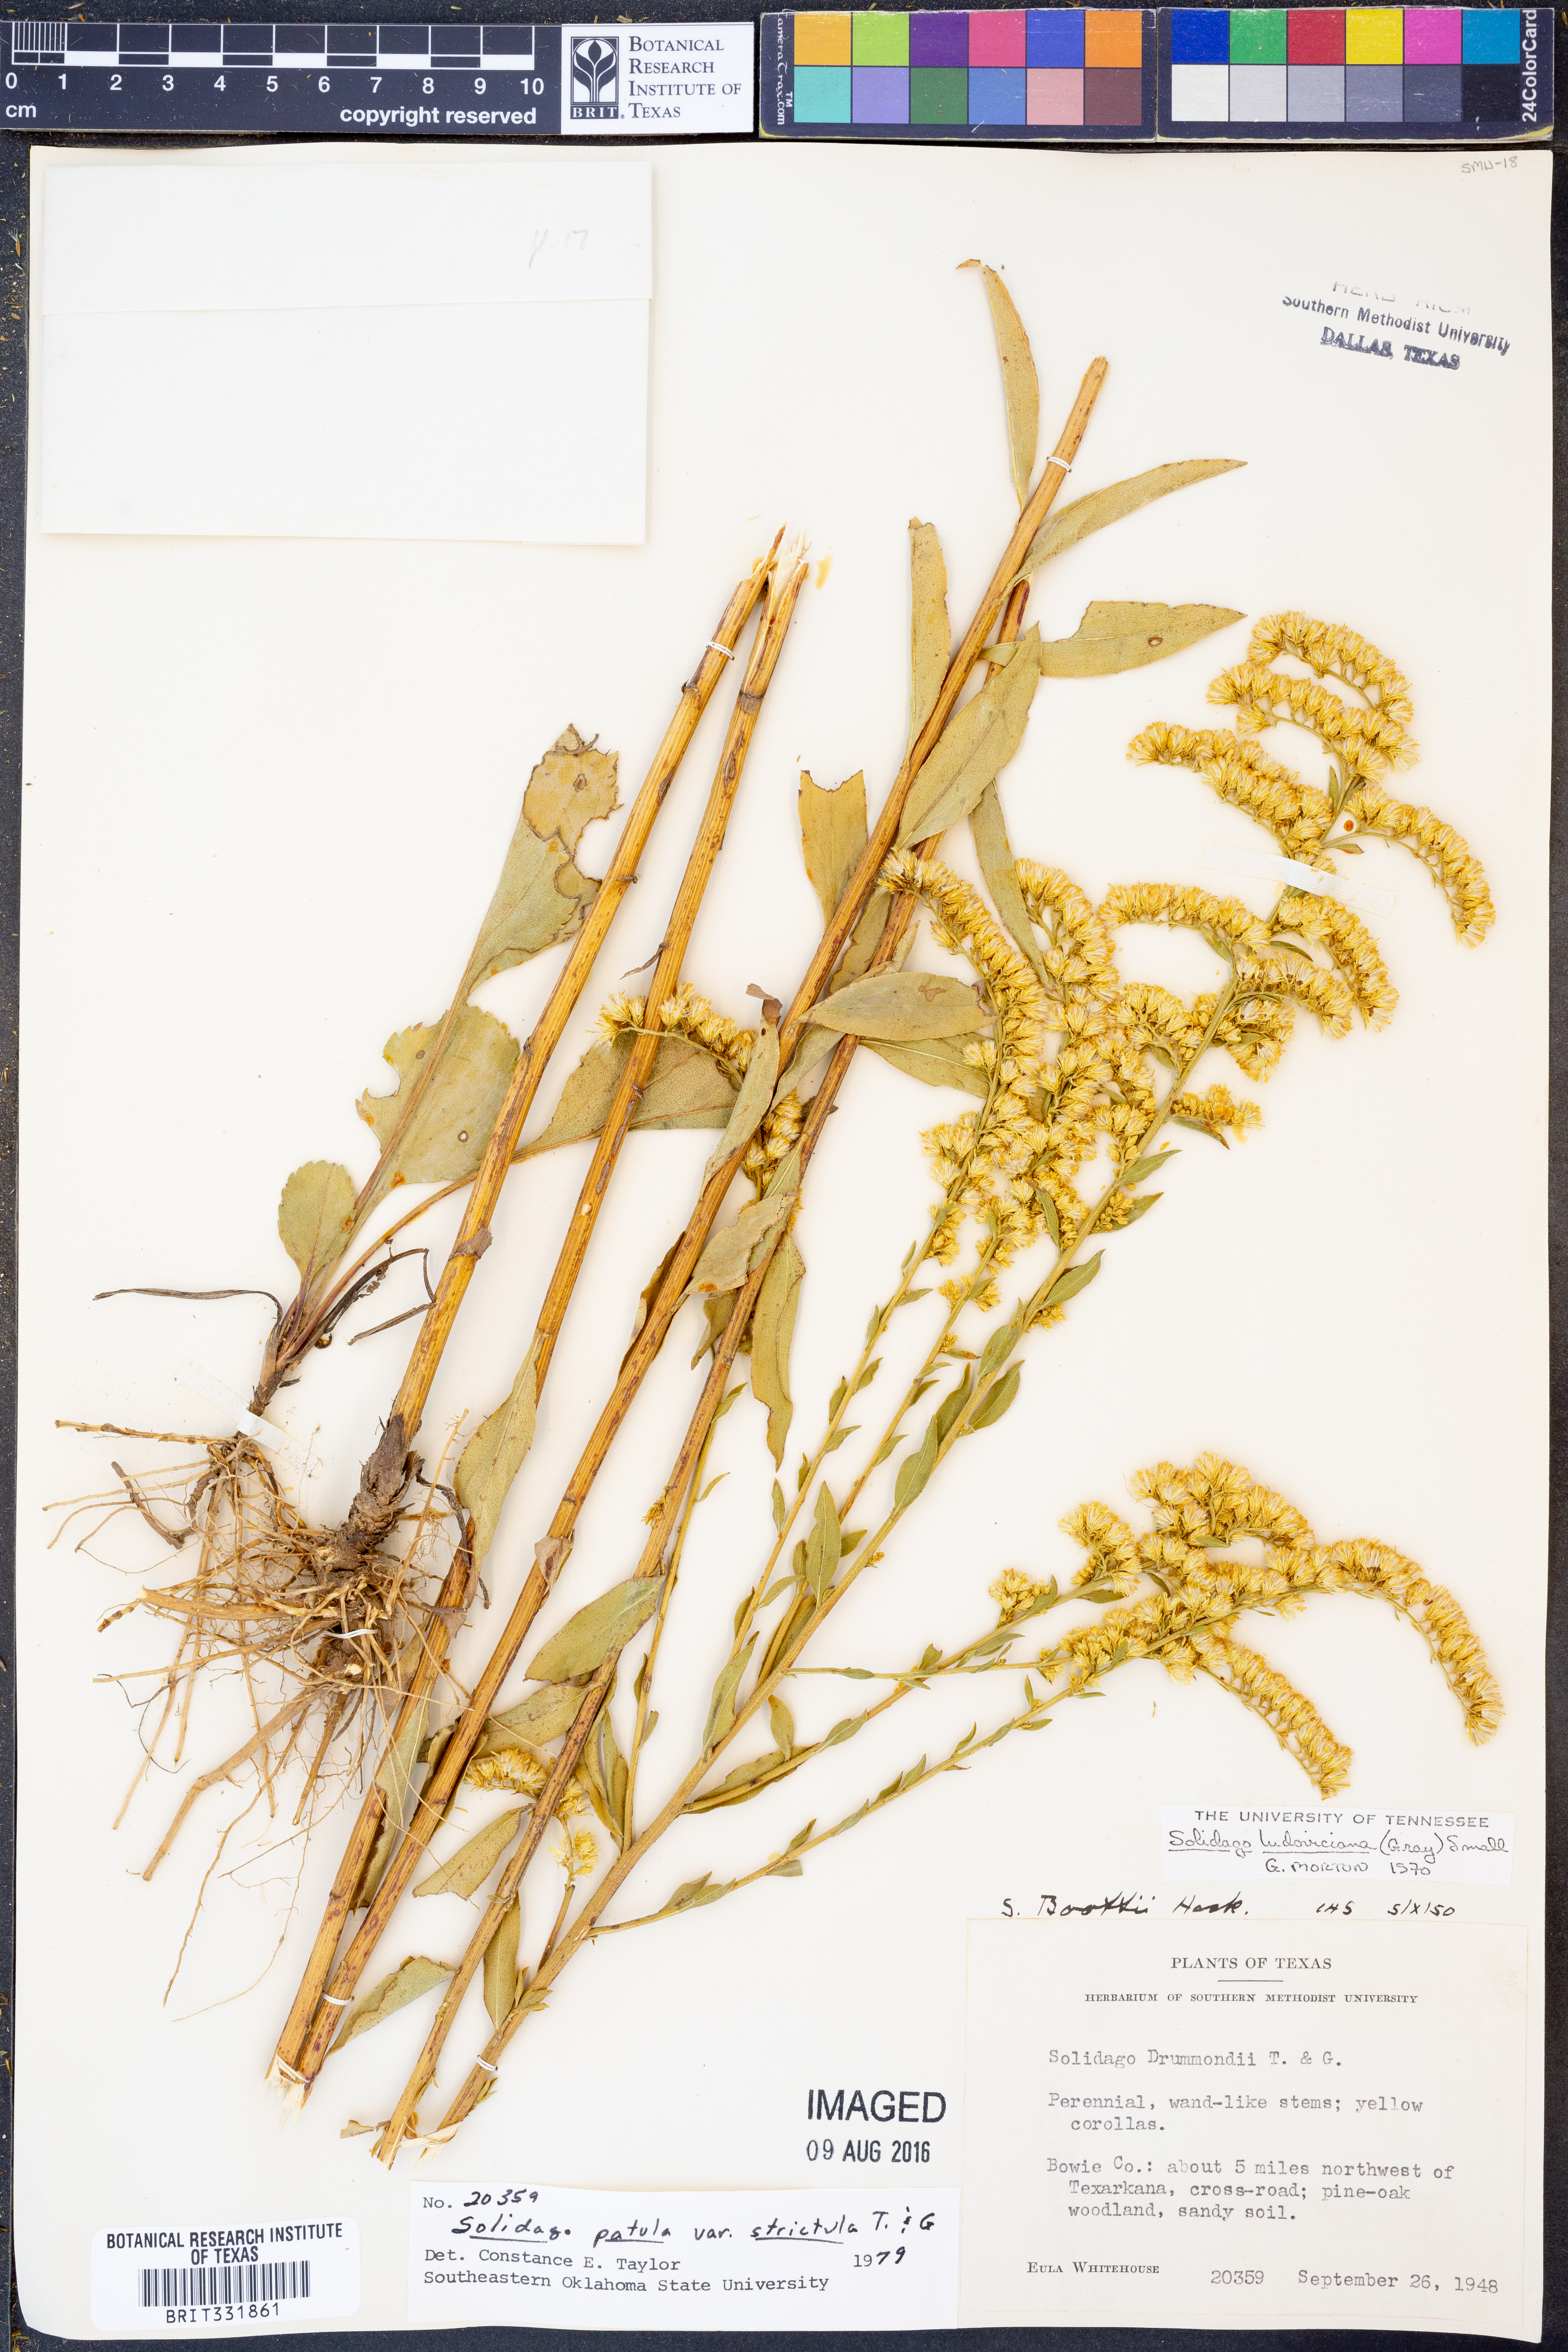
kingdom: Plantae
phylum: Tracheophyta
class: Magnoliopsida
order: Asterales
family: Asteraceae
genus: Solidago
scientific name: Solidago salicina
